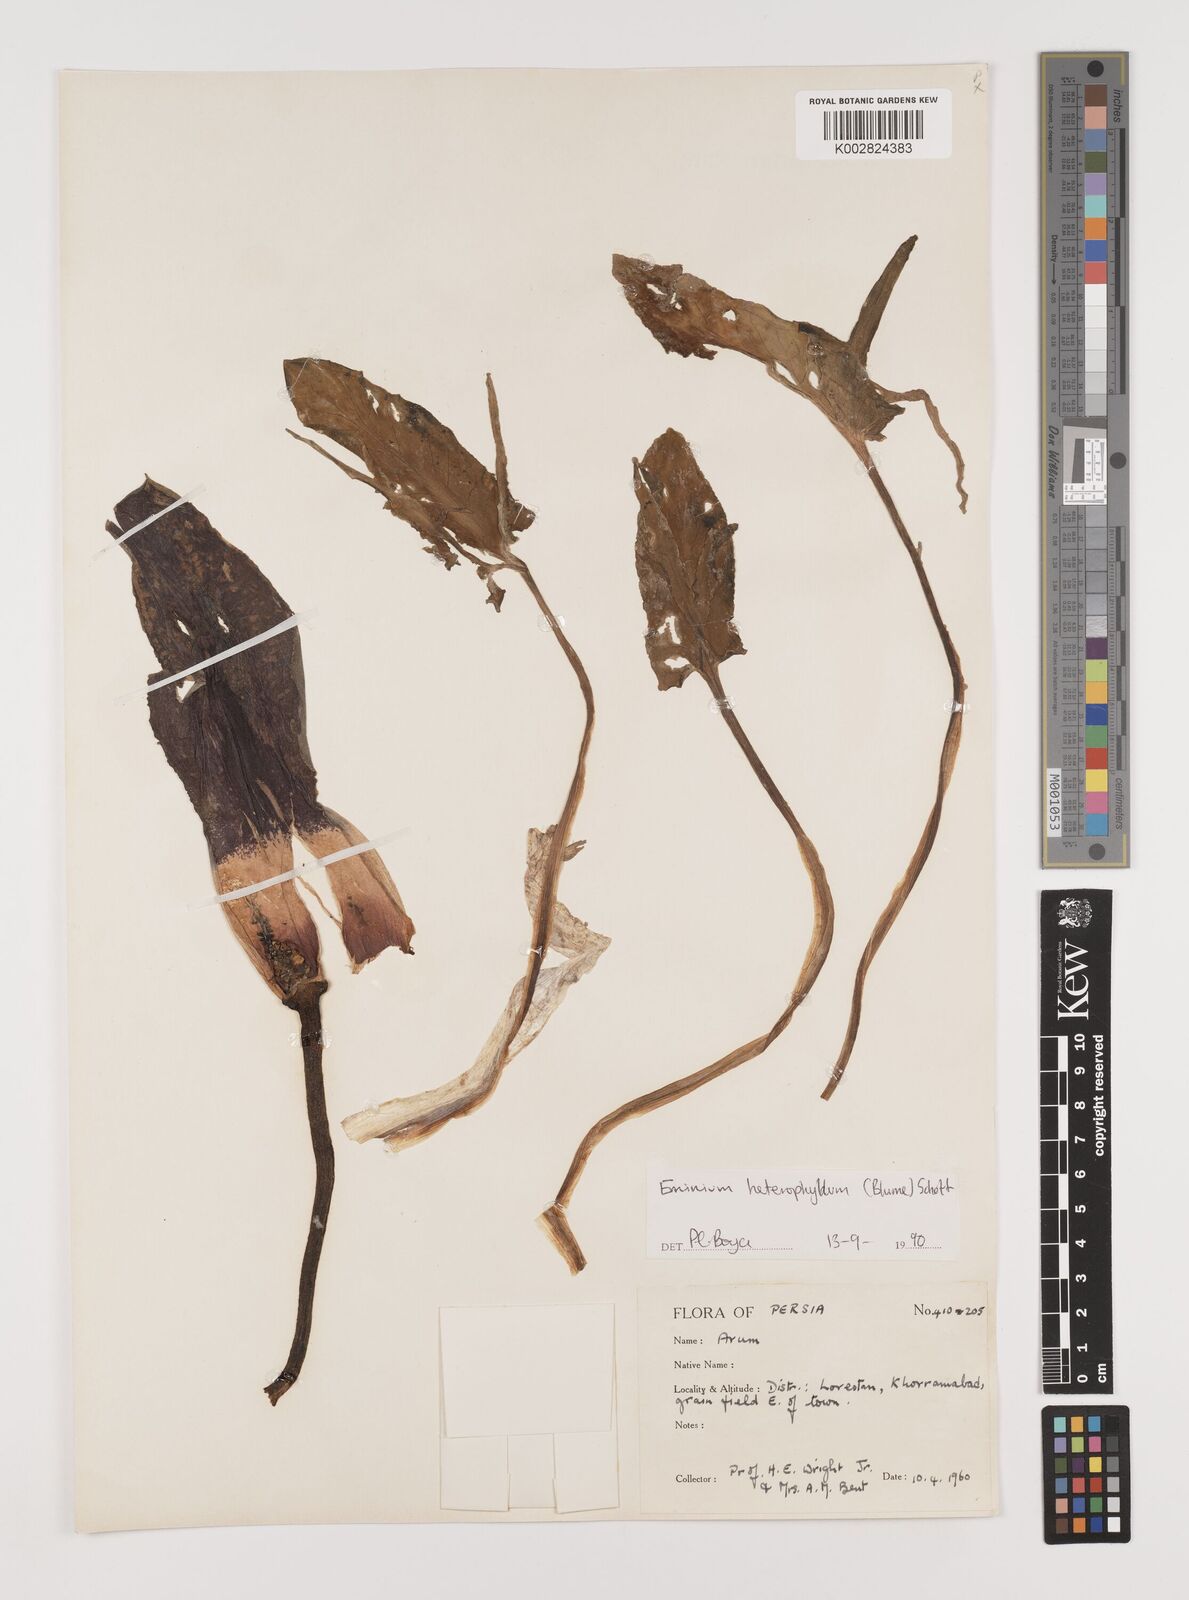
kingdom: Plantae
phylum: Tracheophyta
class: Liliopsida
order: Alismatales
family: Araceae
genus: Eminium
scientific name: Eminium rauwolffii
